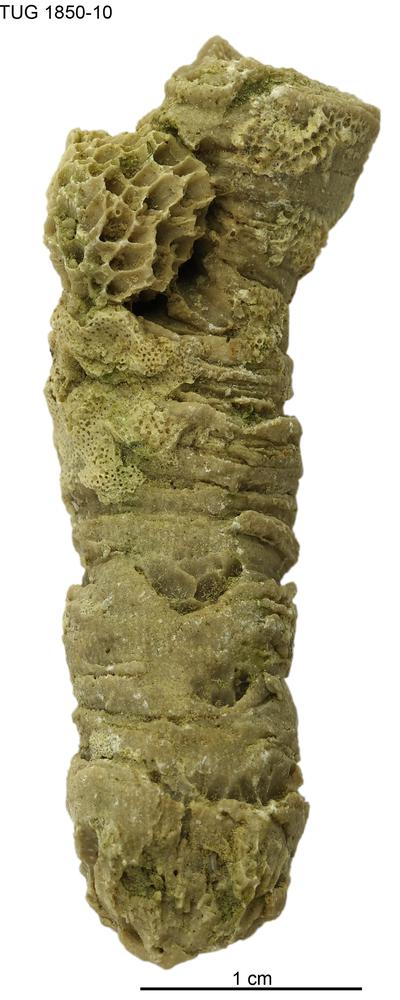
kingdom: Animalia
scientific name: Animalia
